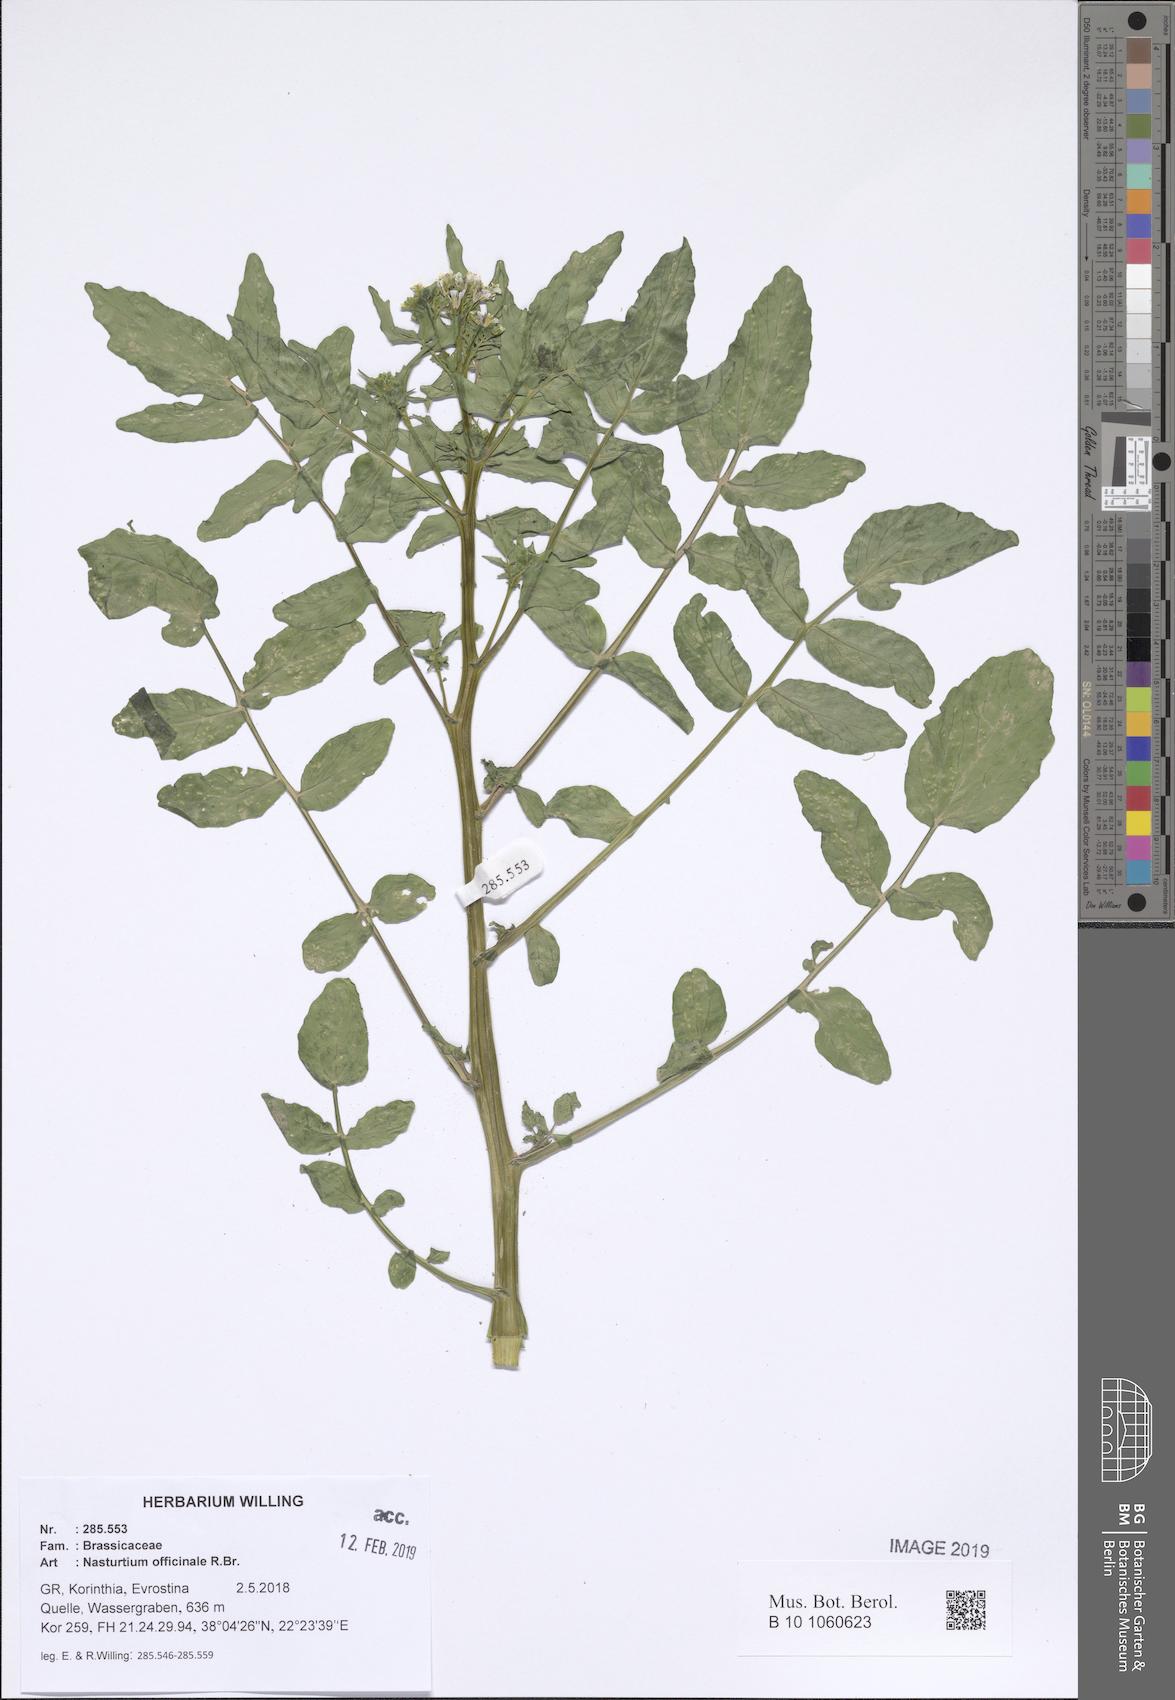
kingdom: Plantae
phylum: Tracheophyta
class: Magnoliopsida
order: Brassicales
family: Brassicaceae
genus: Nasturtium
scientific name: Nasturtium officinale
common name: Watercress
